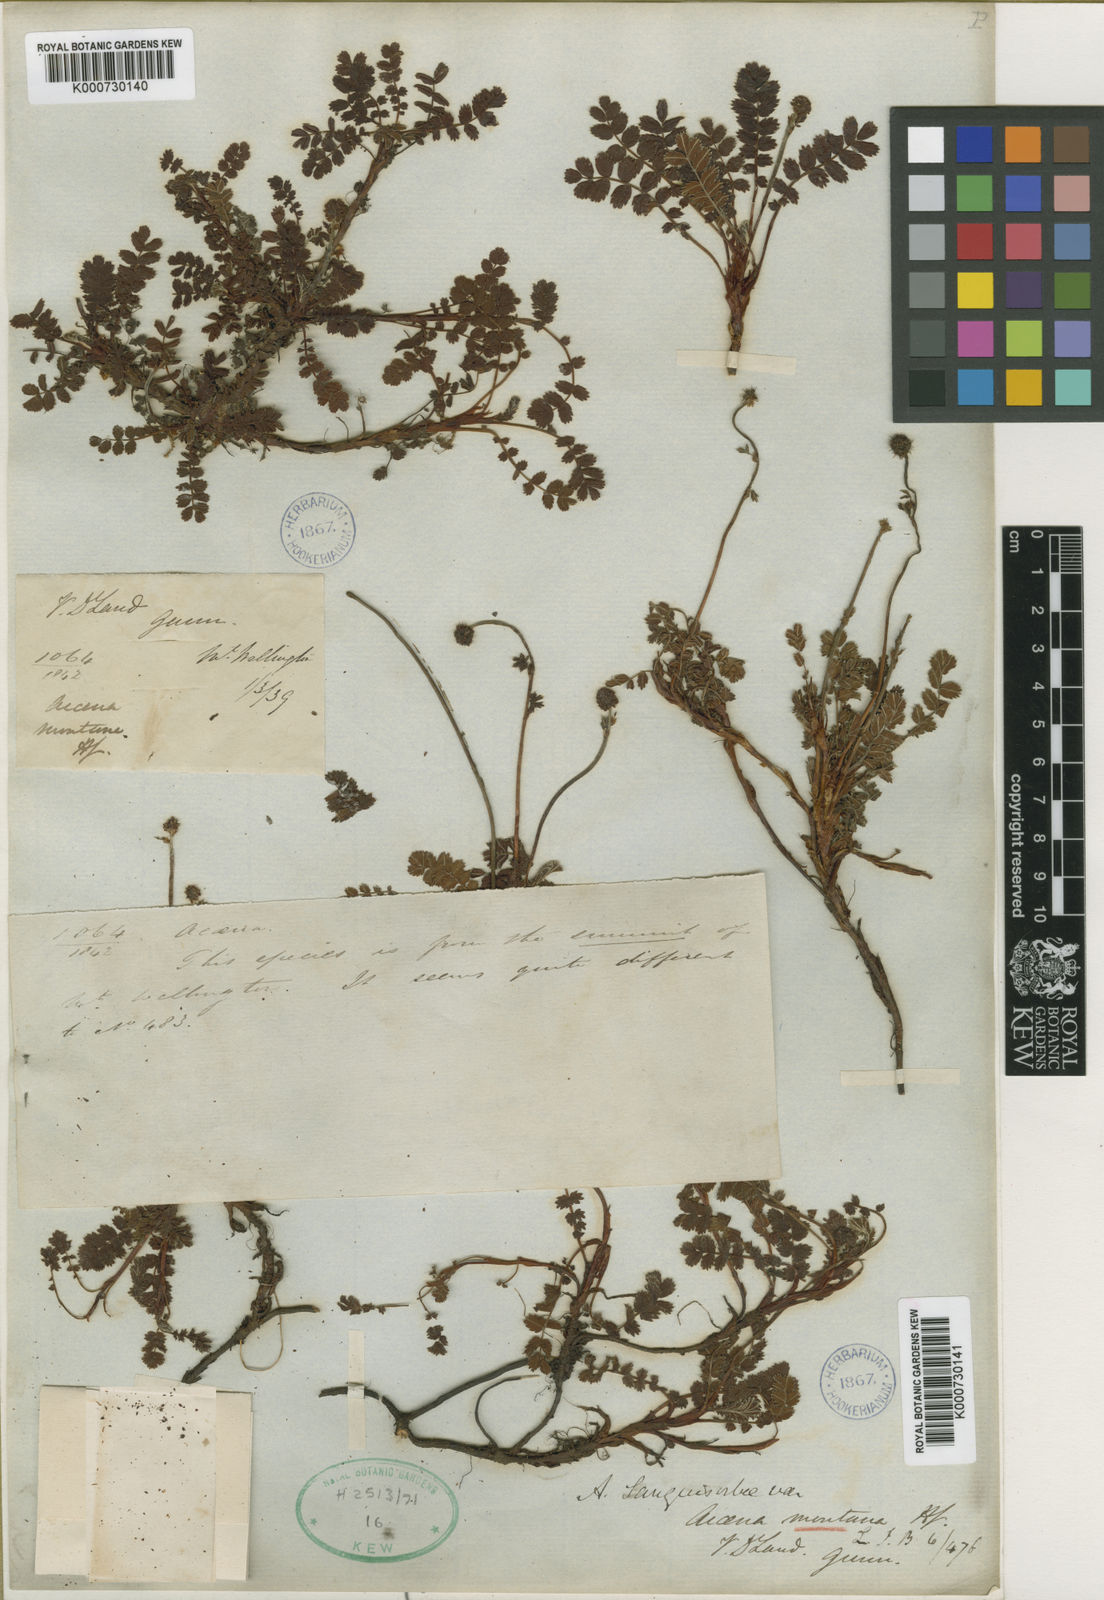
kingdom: Plantae
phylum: Tracheophyta
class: Magnoliopsida
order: Rosales
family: Rosaceae
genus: Acaena
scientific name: Acaena
